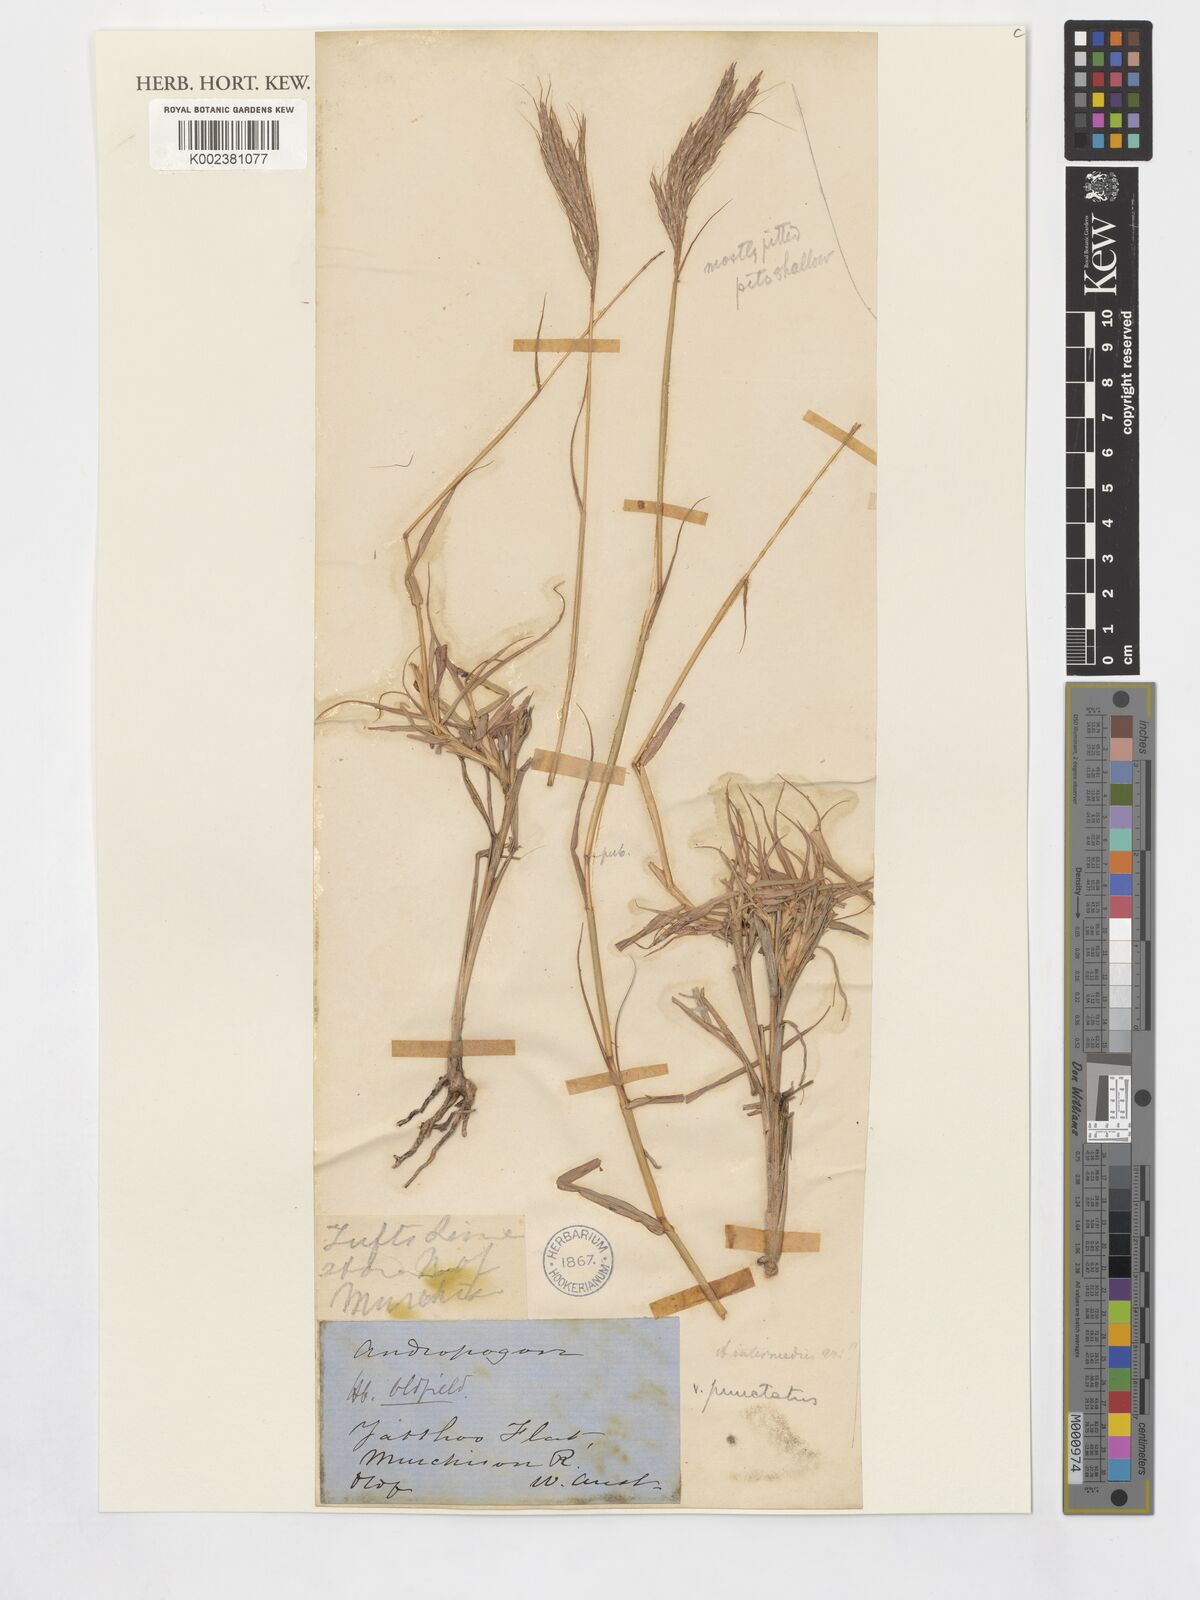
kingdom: Plantae
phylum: Tracheophyta
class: Liliopsida
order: Poales
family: Poaceae
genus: Bothriochloa
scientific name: Bothriochloa bladhii
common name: Caucasian bluestem
